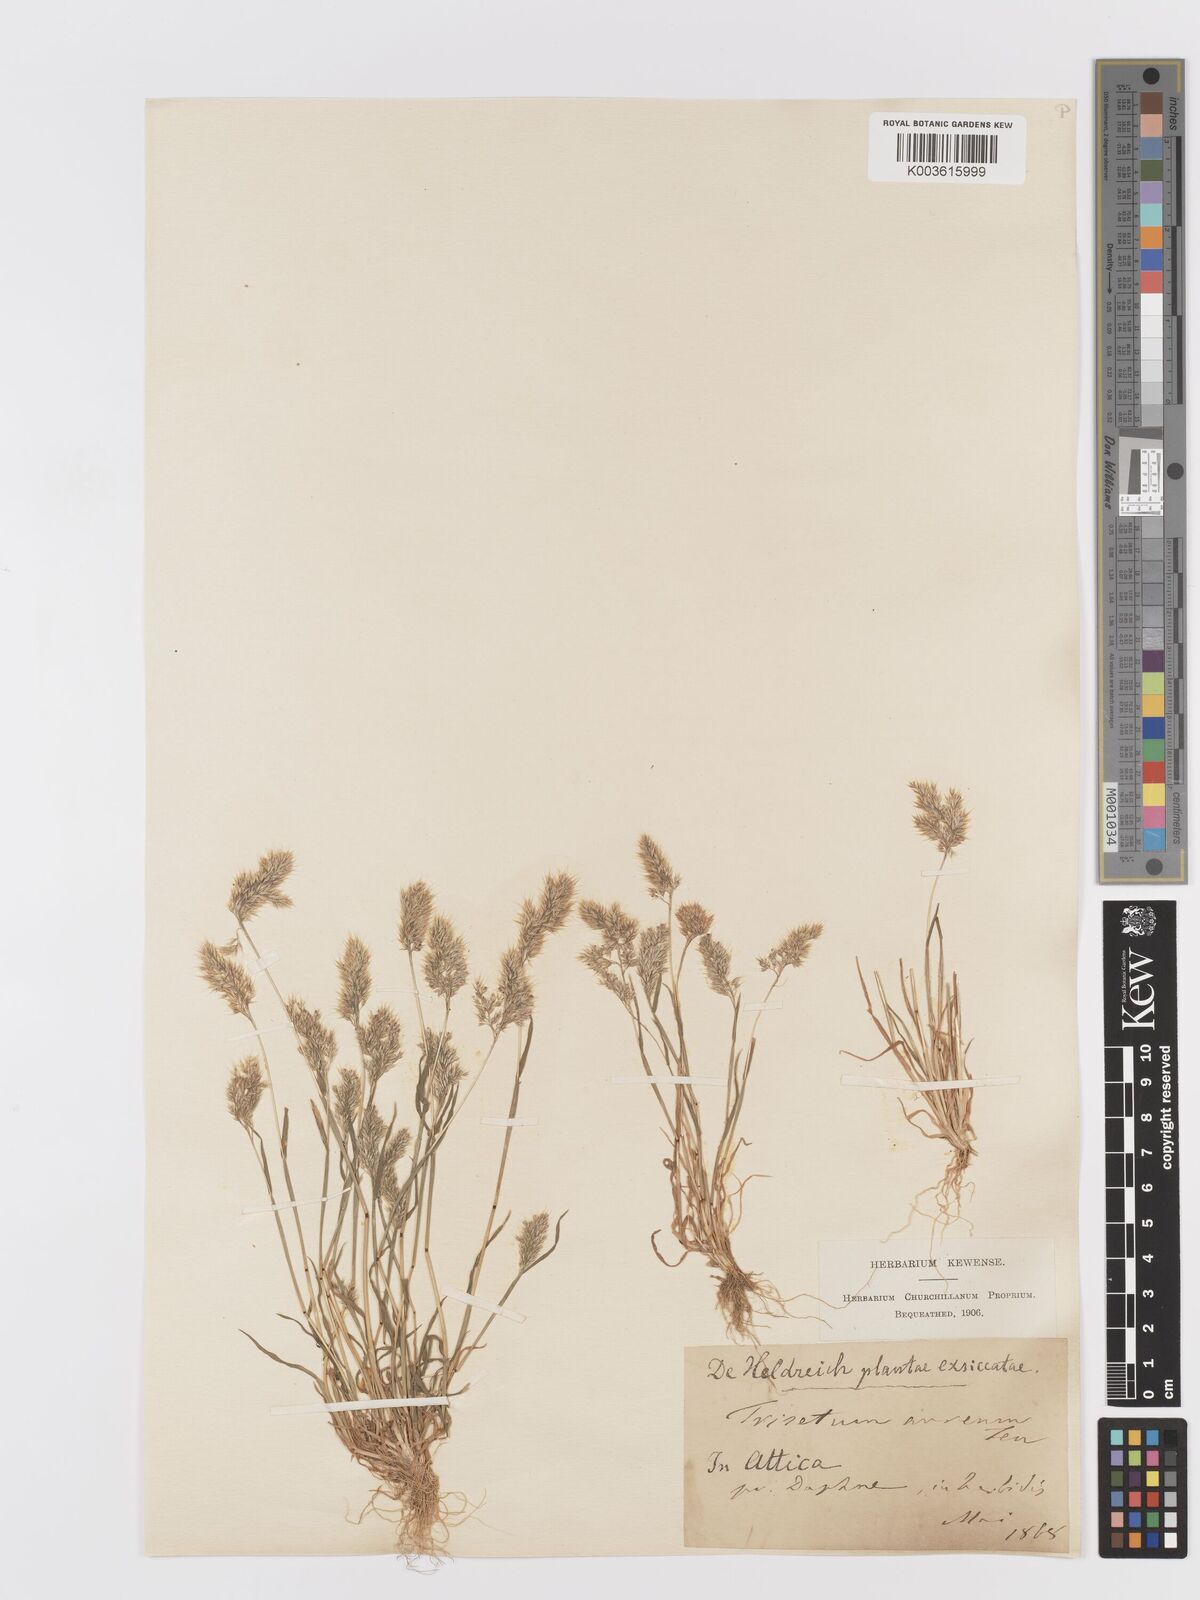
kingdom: Plantae
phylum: Tracheophyta
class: Liliopsida
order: Poales
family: Poaceae
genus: Trisetaria
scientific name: Trisetaria aurea
